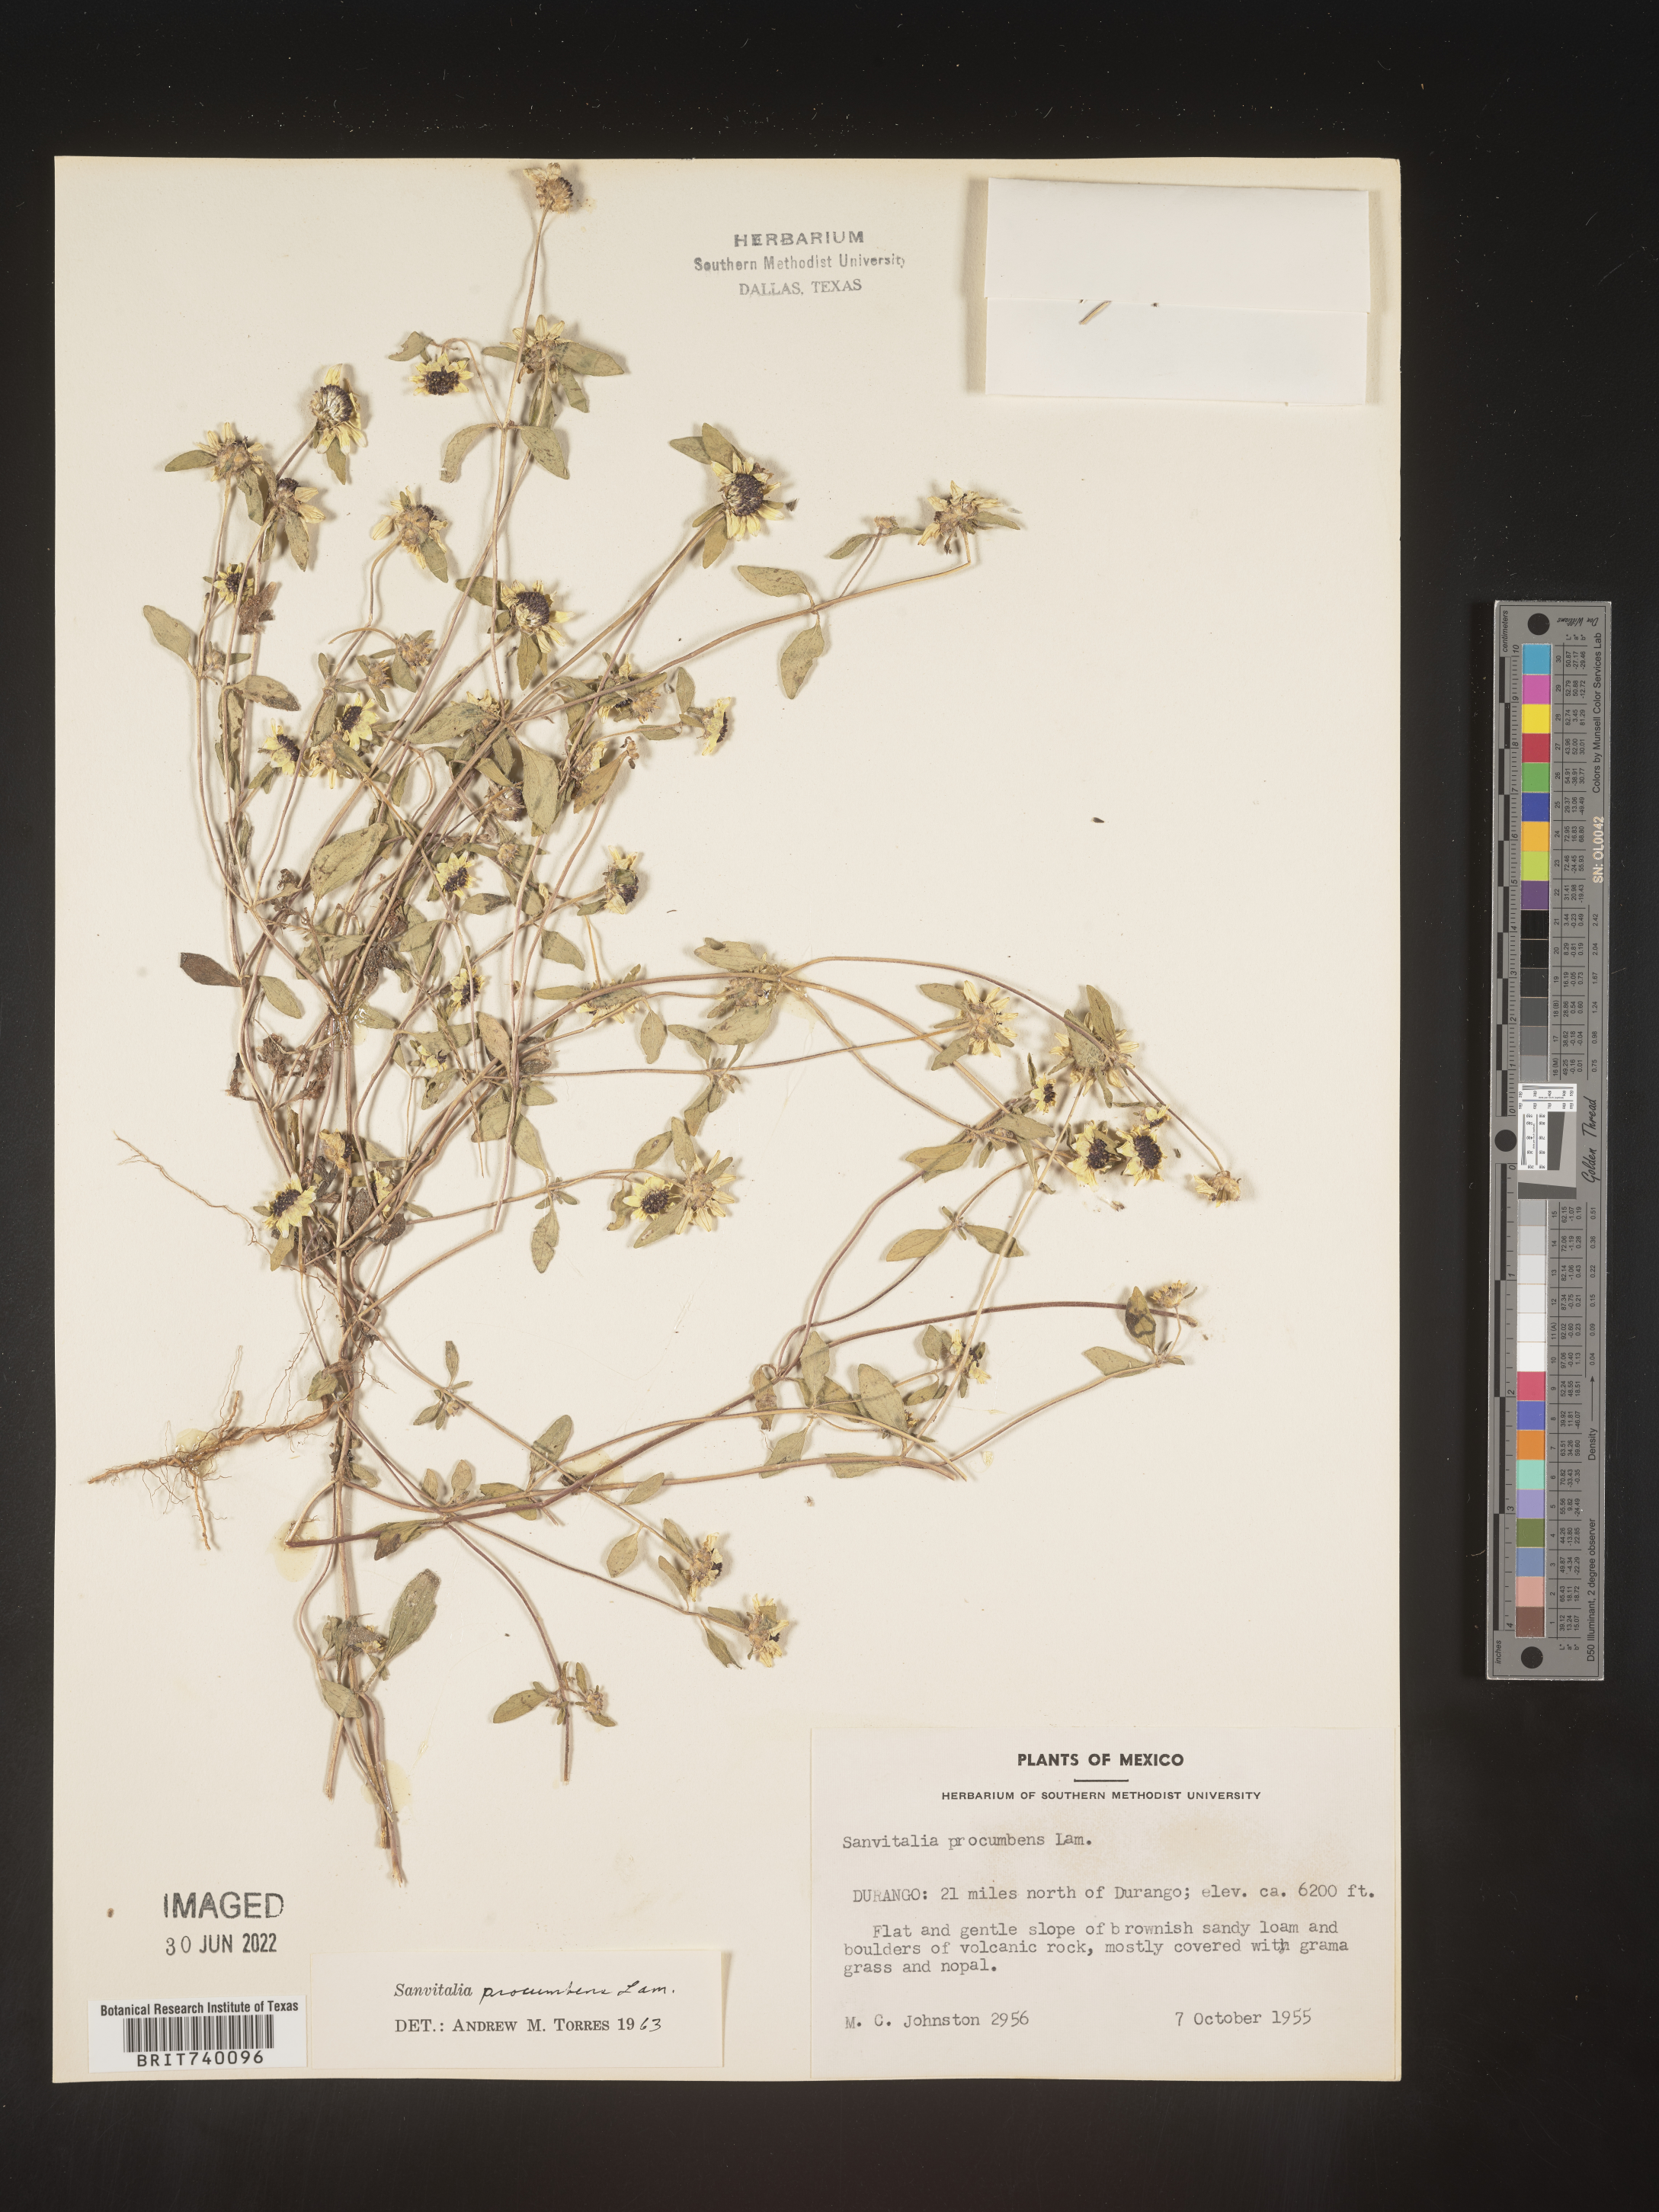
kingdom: Plantae
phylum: Tracheophyta
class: Magnoliopsida
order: Asterales
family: Asteraceae
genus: Sanvitalia
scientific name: Sanvitalia
